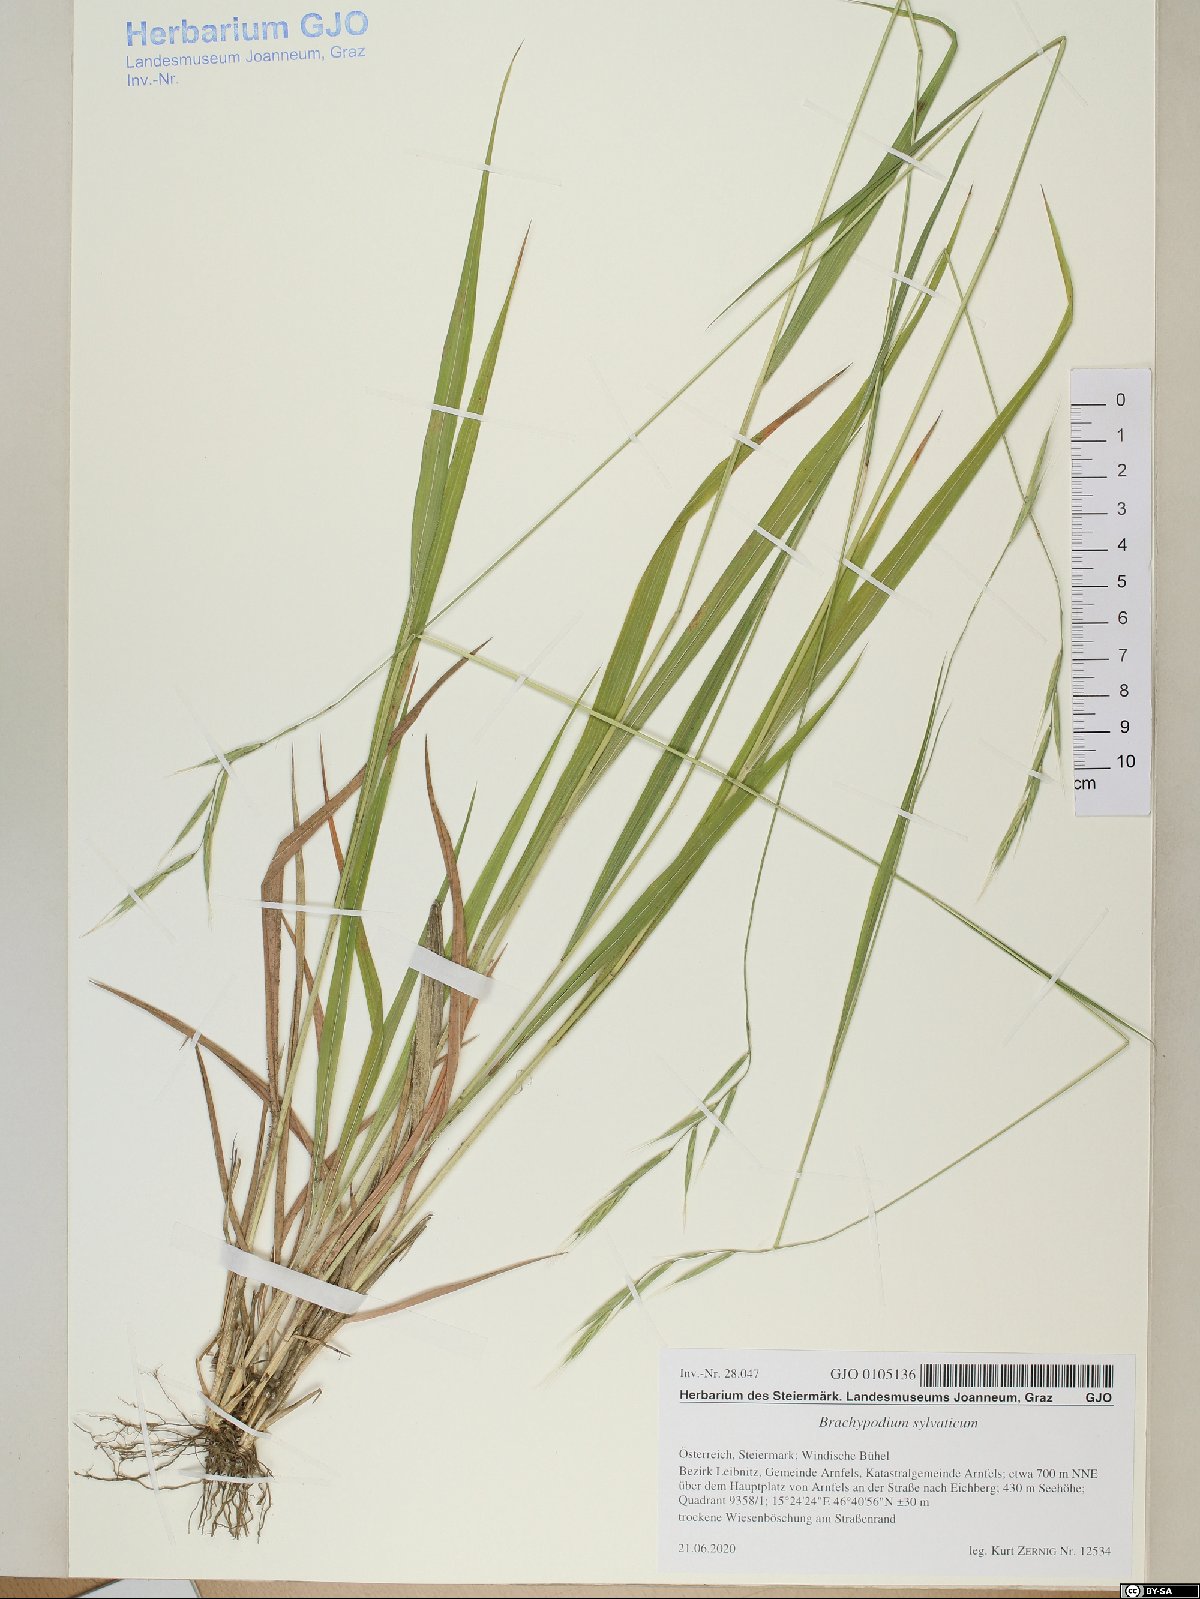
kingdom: Plantae
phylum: Tracheophyta
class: Liliopsida
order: Poales
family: Poaceae
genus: Brachypodium
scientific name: Brachypodium sylvaticum
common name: False-brome
